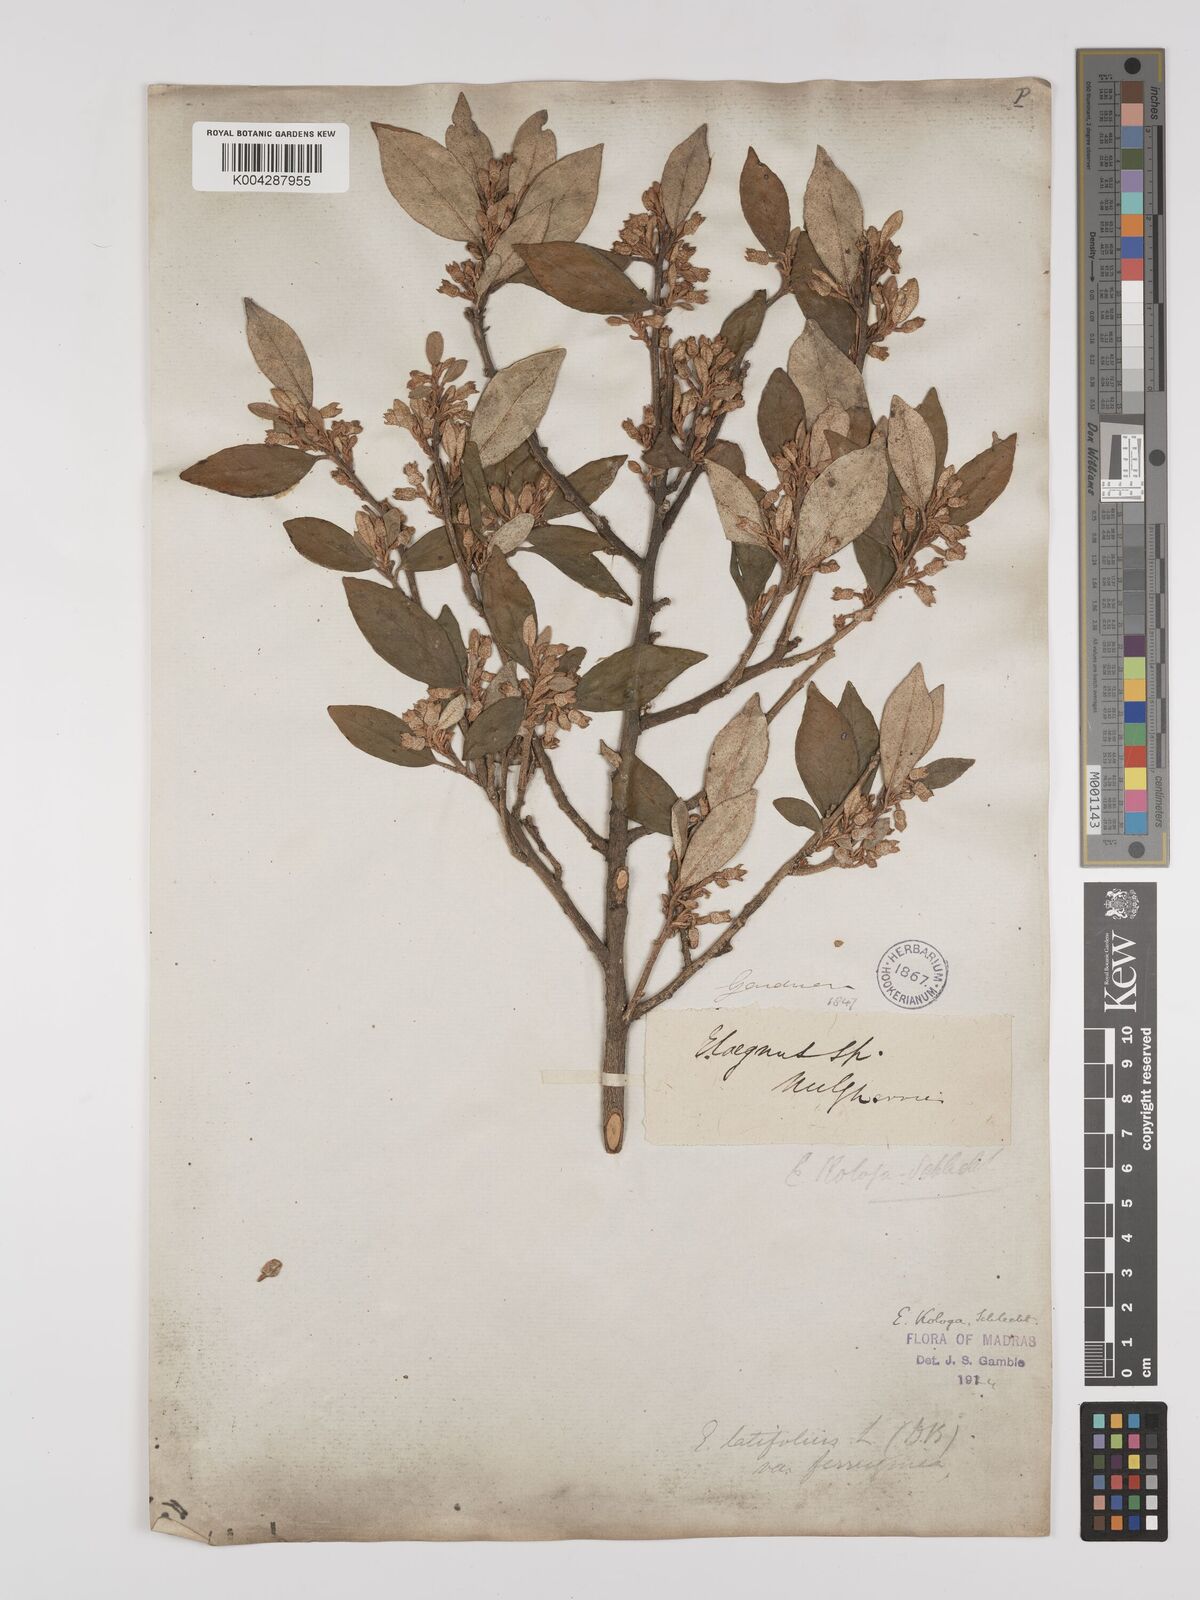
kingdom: Plantae
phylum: Tracheophyta
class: Magnoliopsida
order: Rosales
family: Elaeagnaceae
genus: Elaeagnus
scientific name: Elaeagnus latifolia
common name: Oleaster
